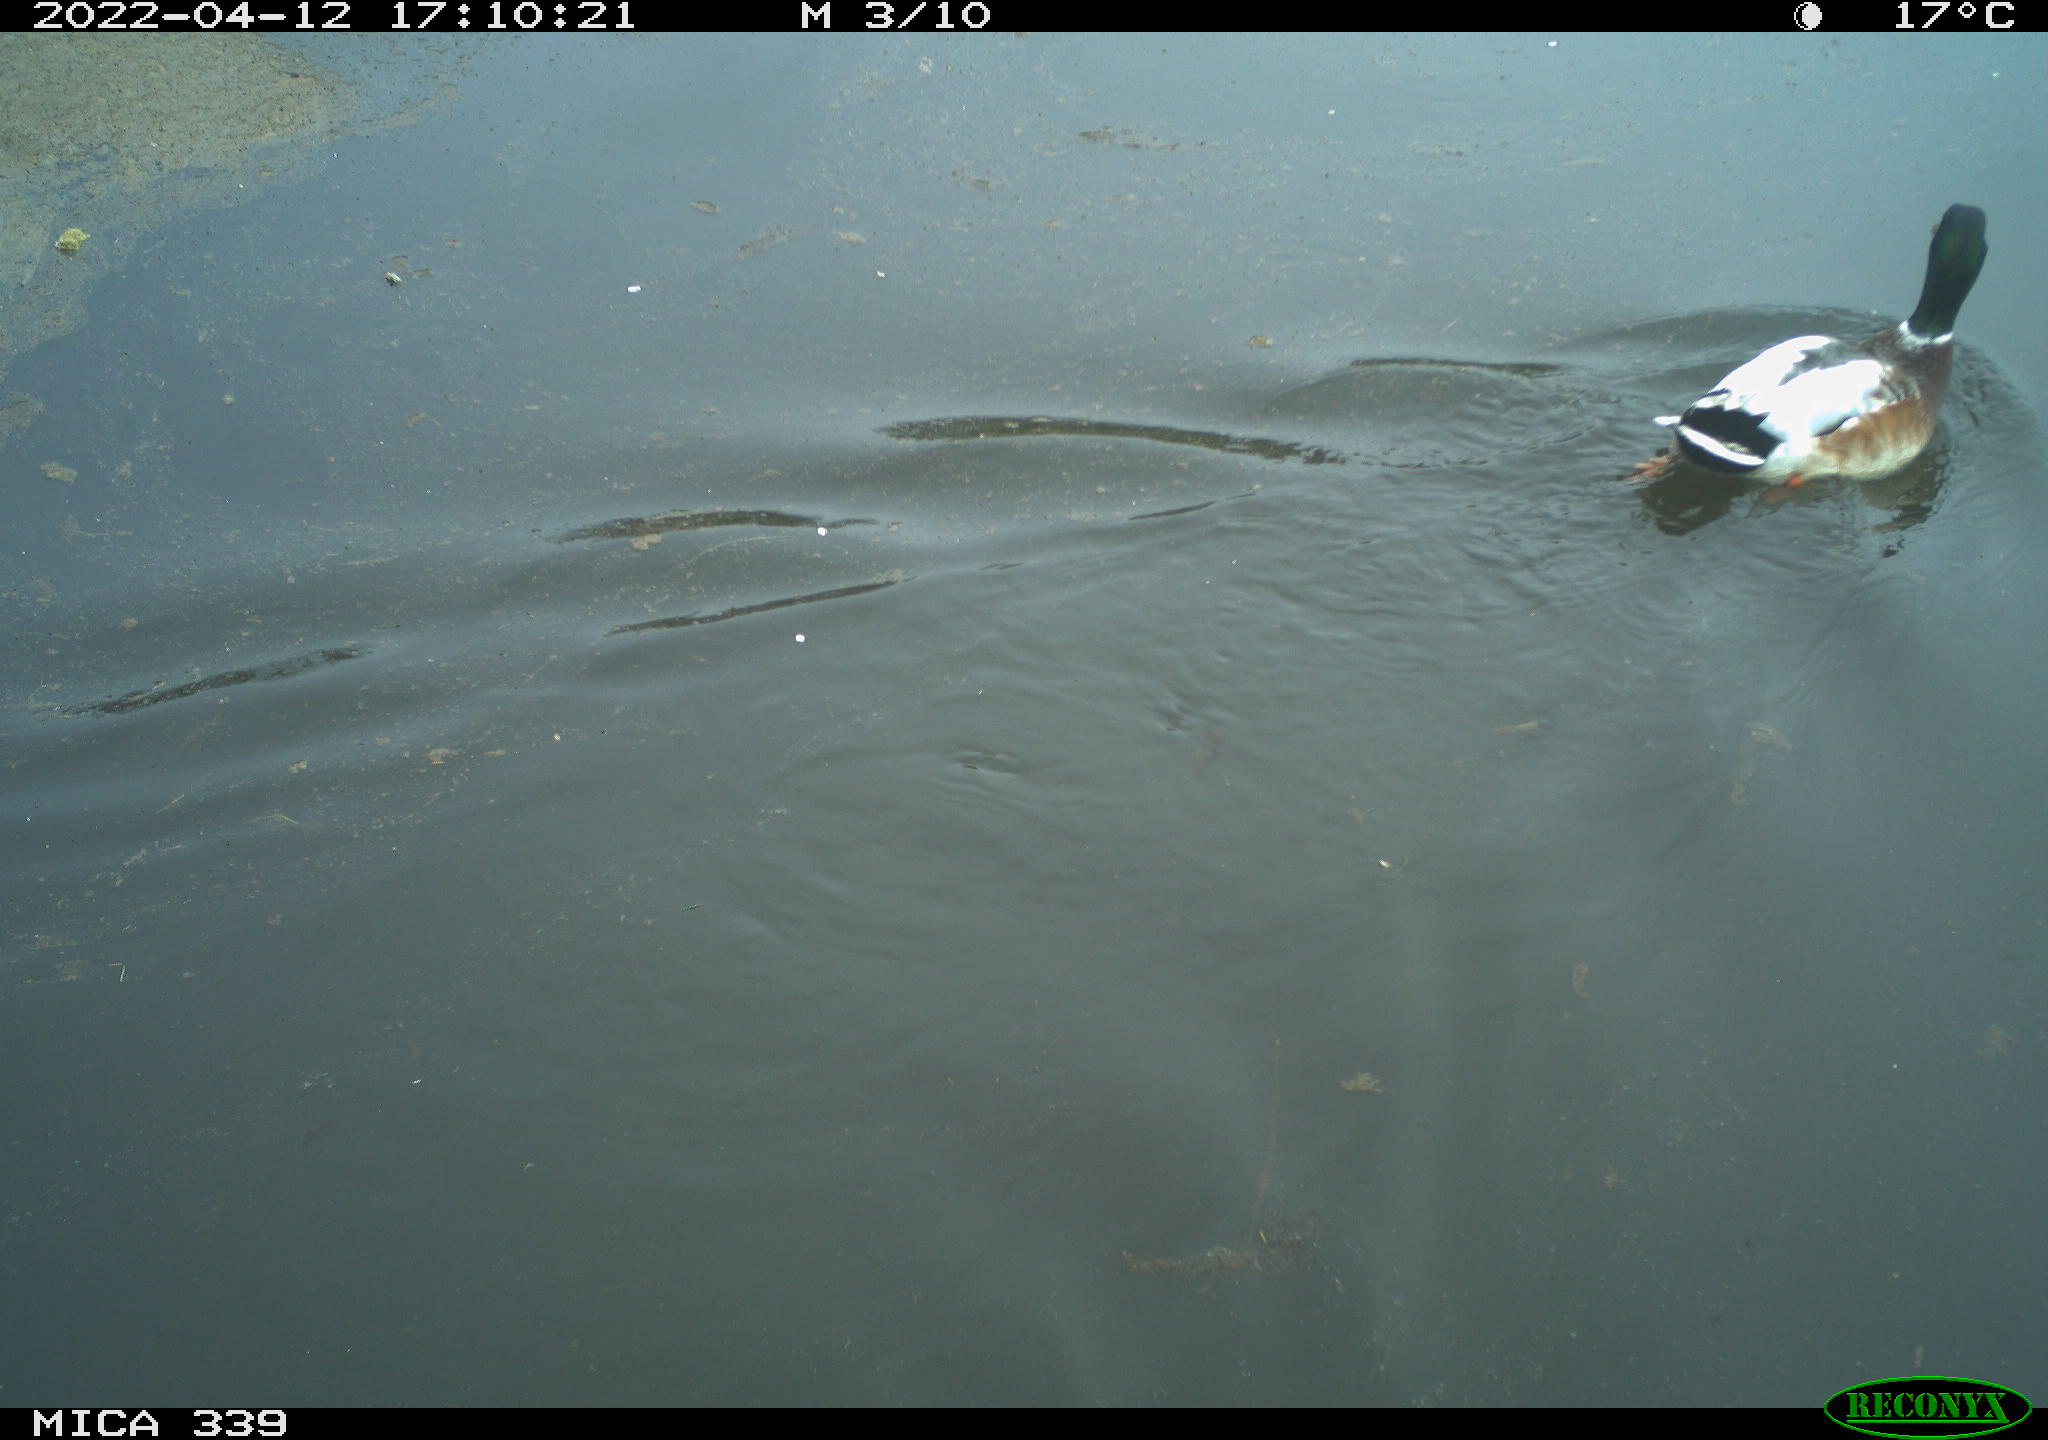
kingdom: Animalia
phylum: Chordata
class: Aves
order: Anseriformes
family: Anatidae
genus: Anas
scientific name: Anas platyrhynchos
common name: Mallard
